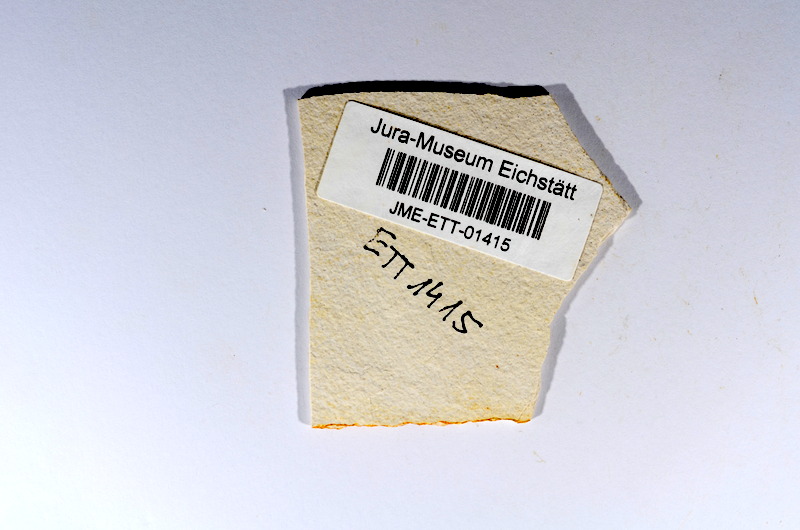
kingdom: Animalia
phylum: Chordata
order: Salmoniformes
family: Orthogonikleithridae
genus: Orthogonikleithrus
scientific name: Orthogonikleithrus hoelli
